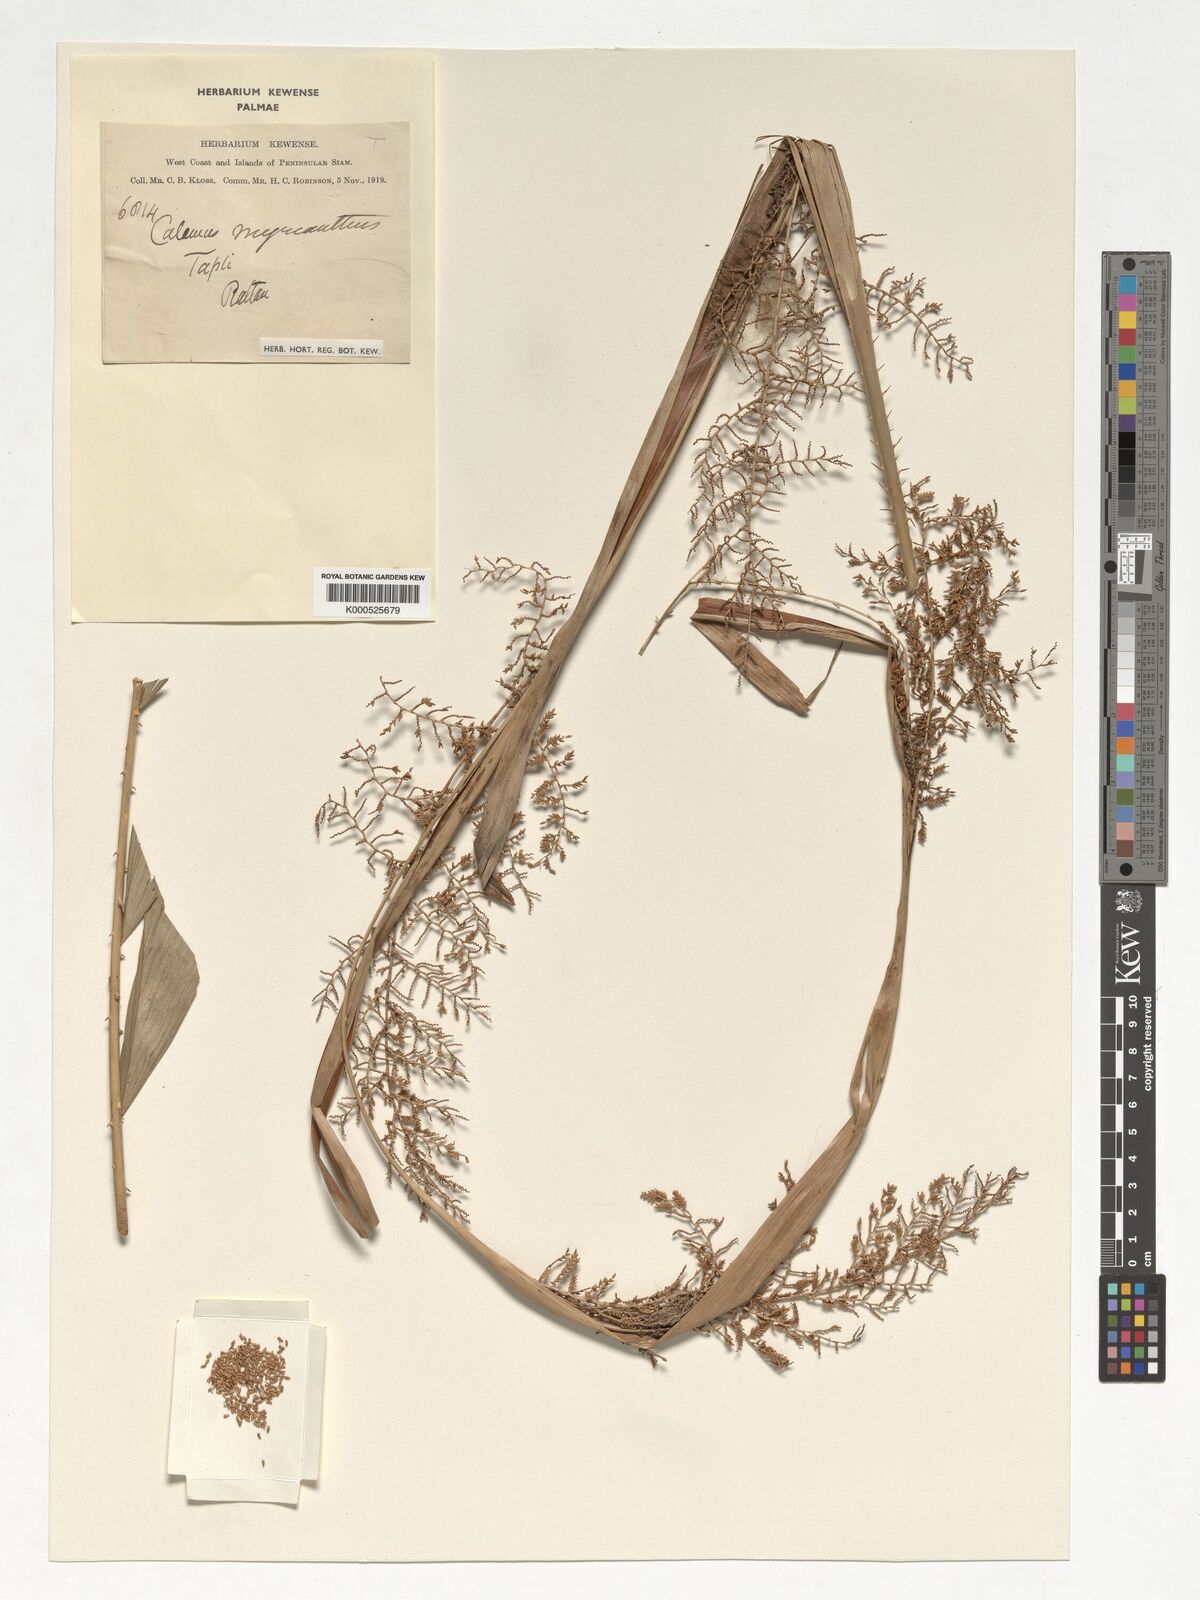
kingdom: Plantae
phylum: Tracheophyta
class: Liliopsida
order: Arecales
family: Arecaceae
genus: Calamus
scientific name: Calamus myrianthus
